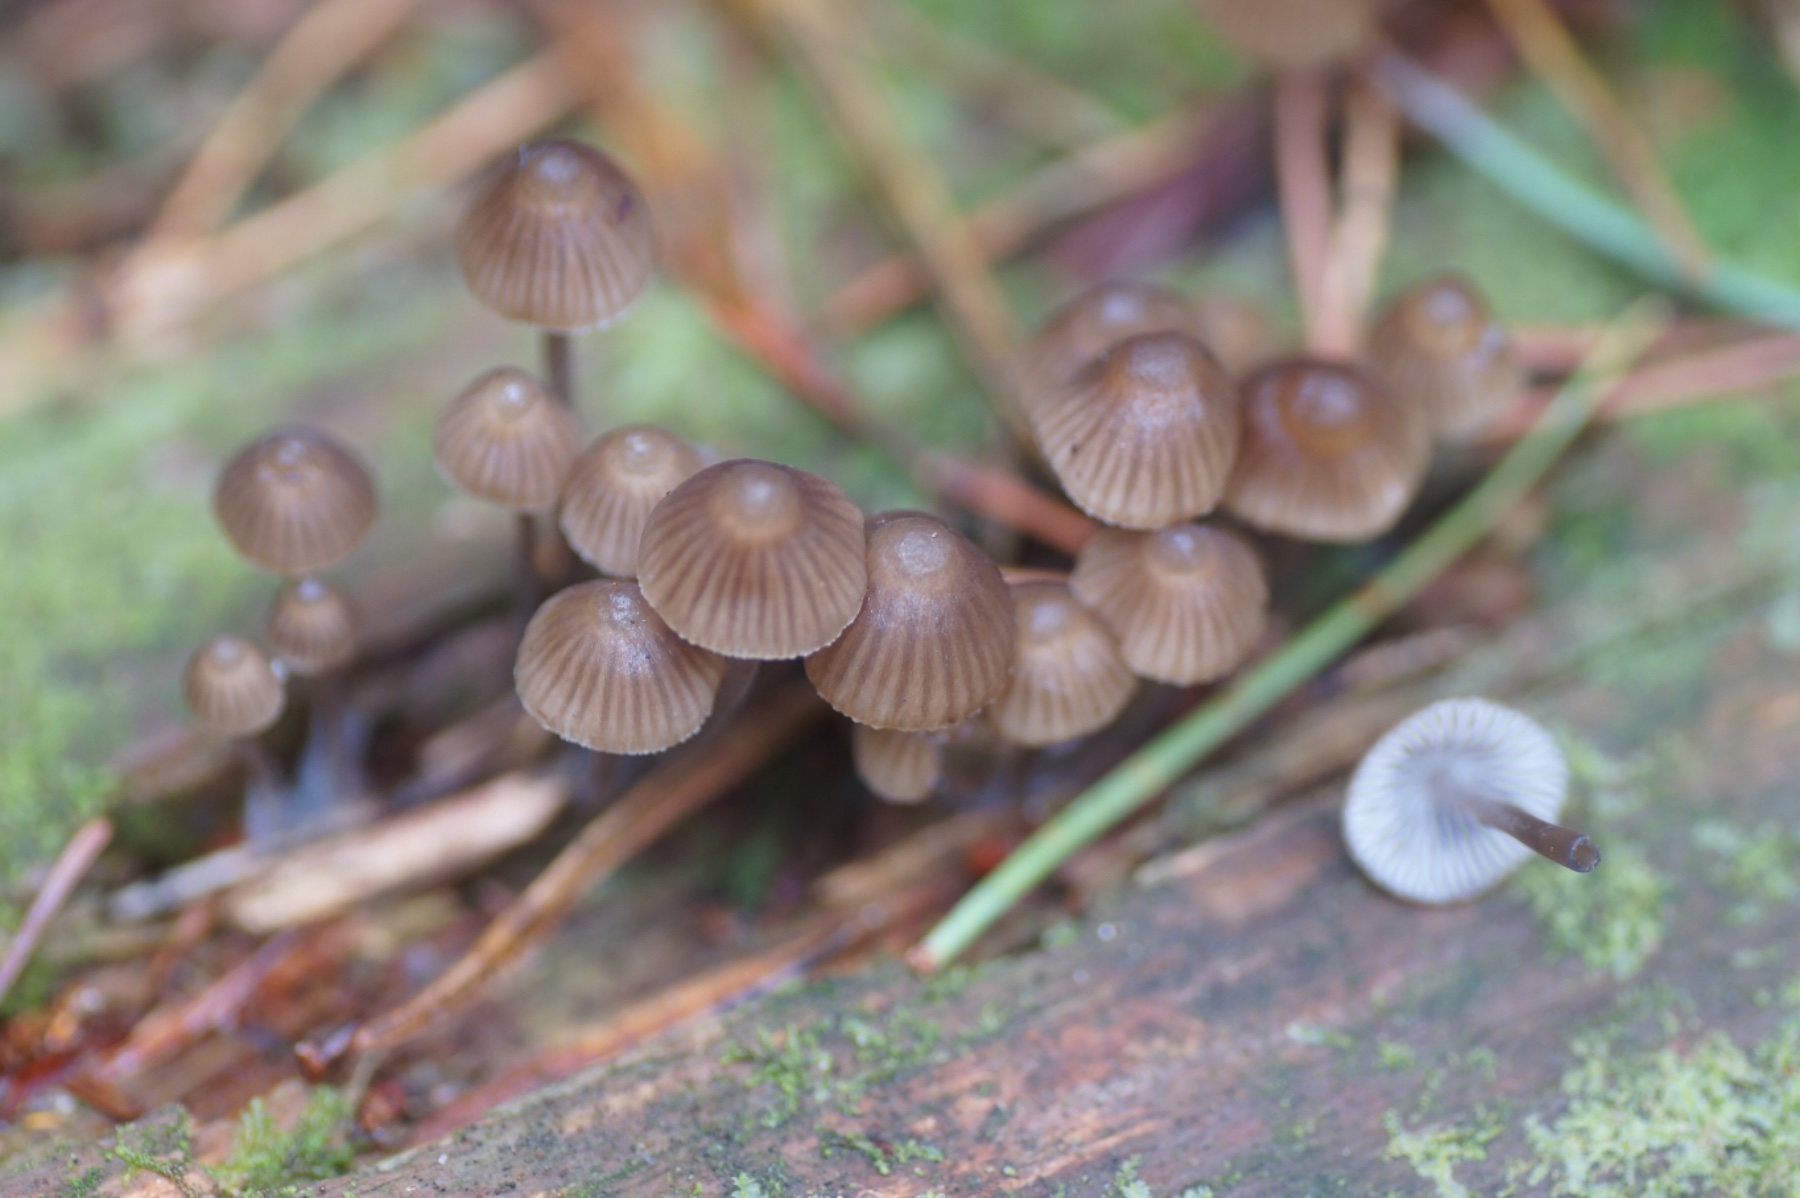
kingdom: Fungi
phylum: Basidiomycota
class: Agaricomycetes
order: Agaricales
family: Mycenaceae
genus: Mycena
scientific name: Mycena stipata
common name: stinkende huesvamp
